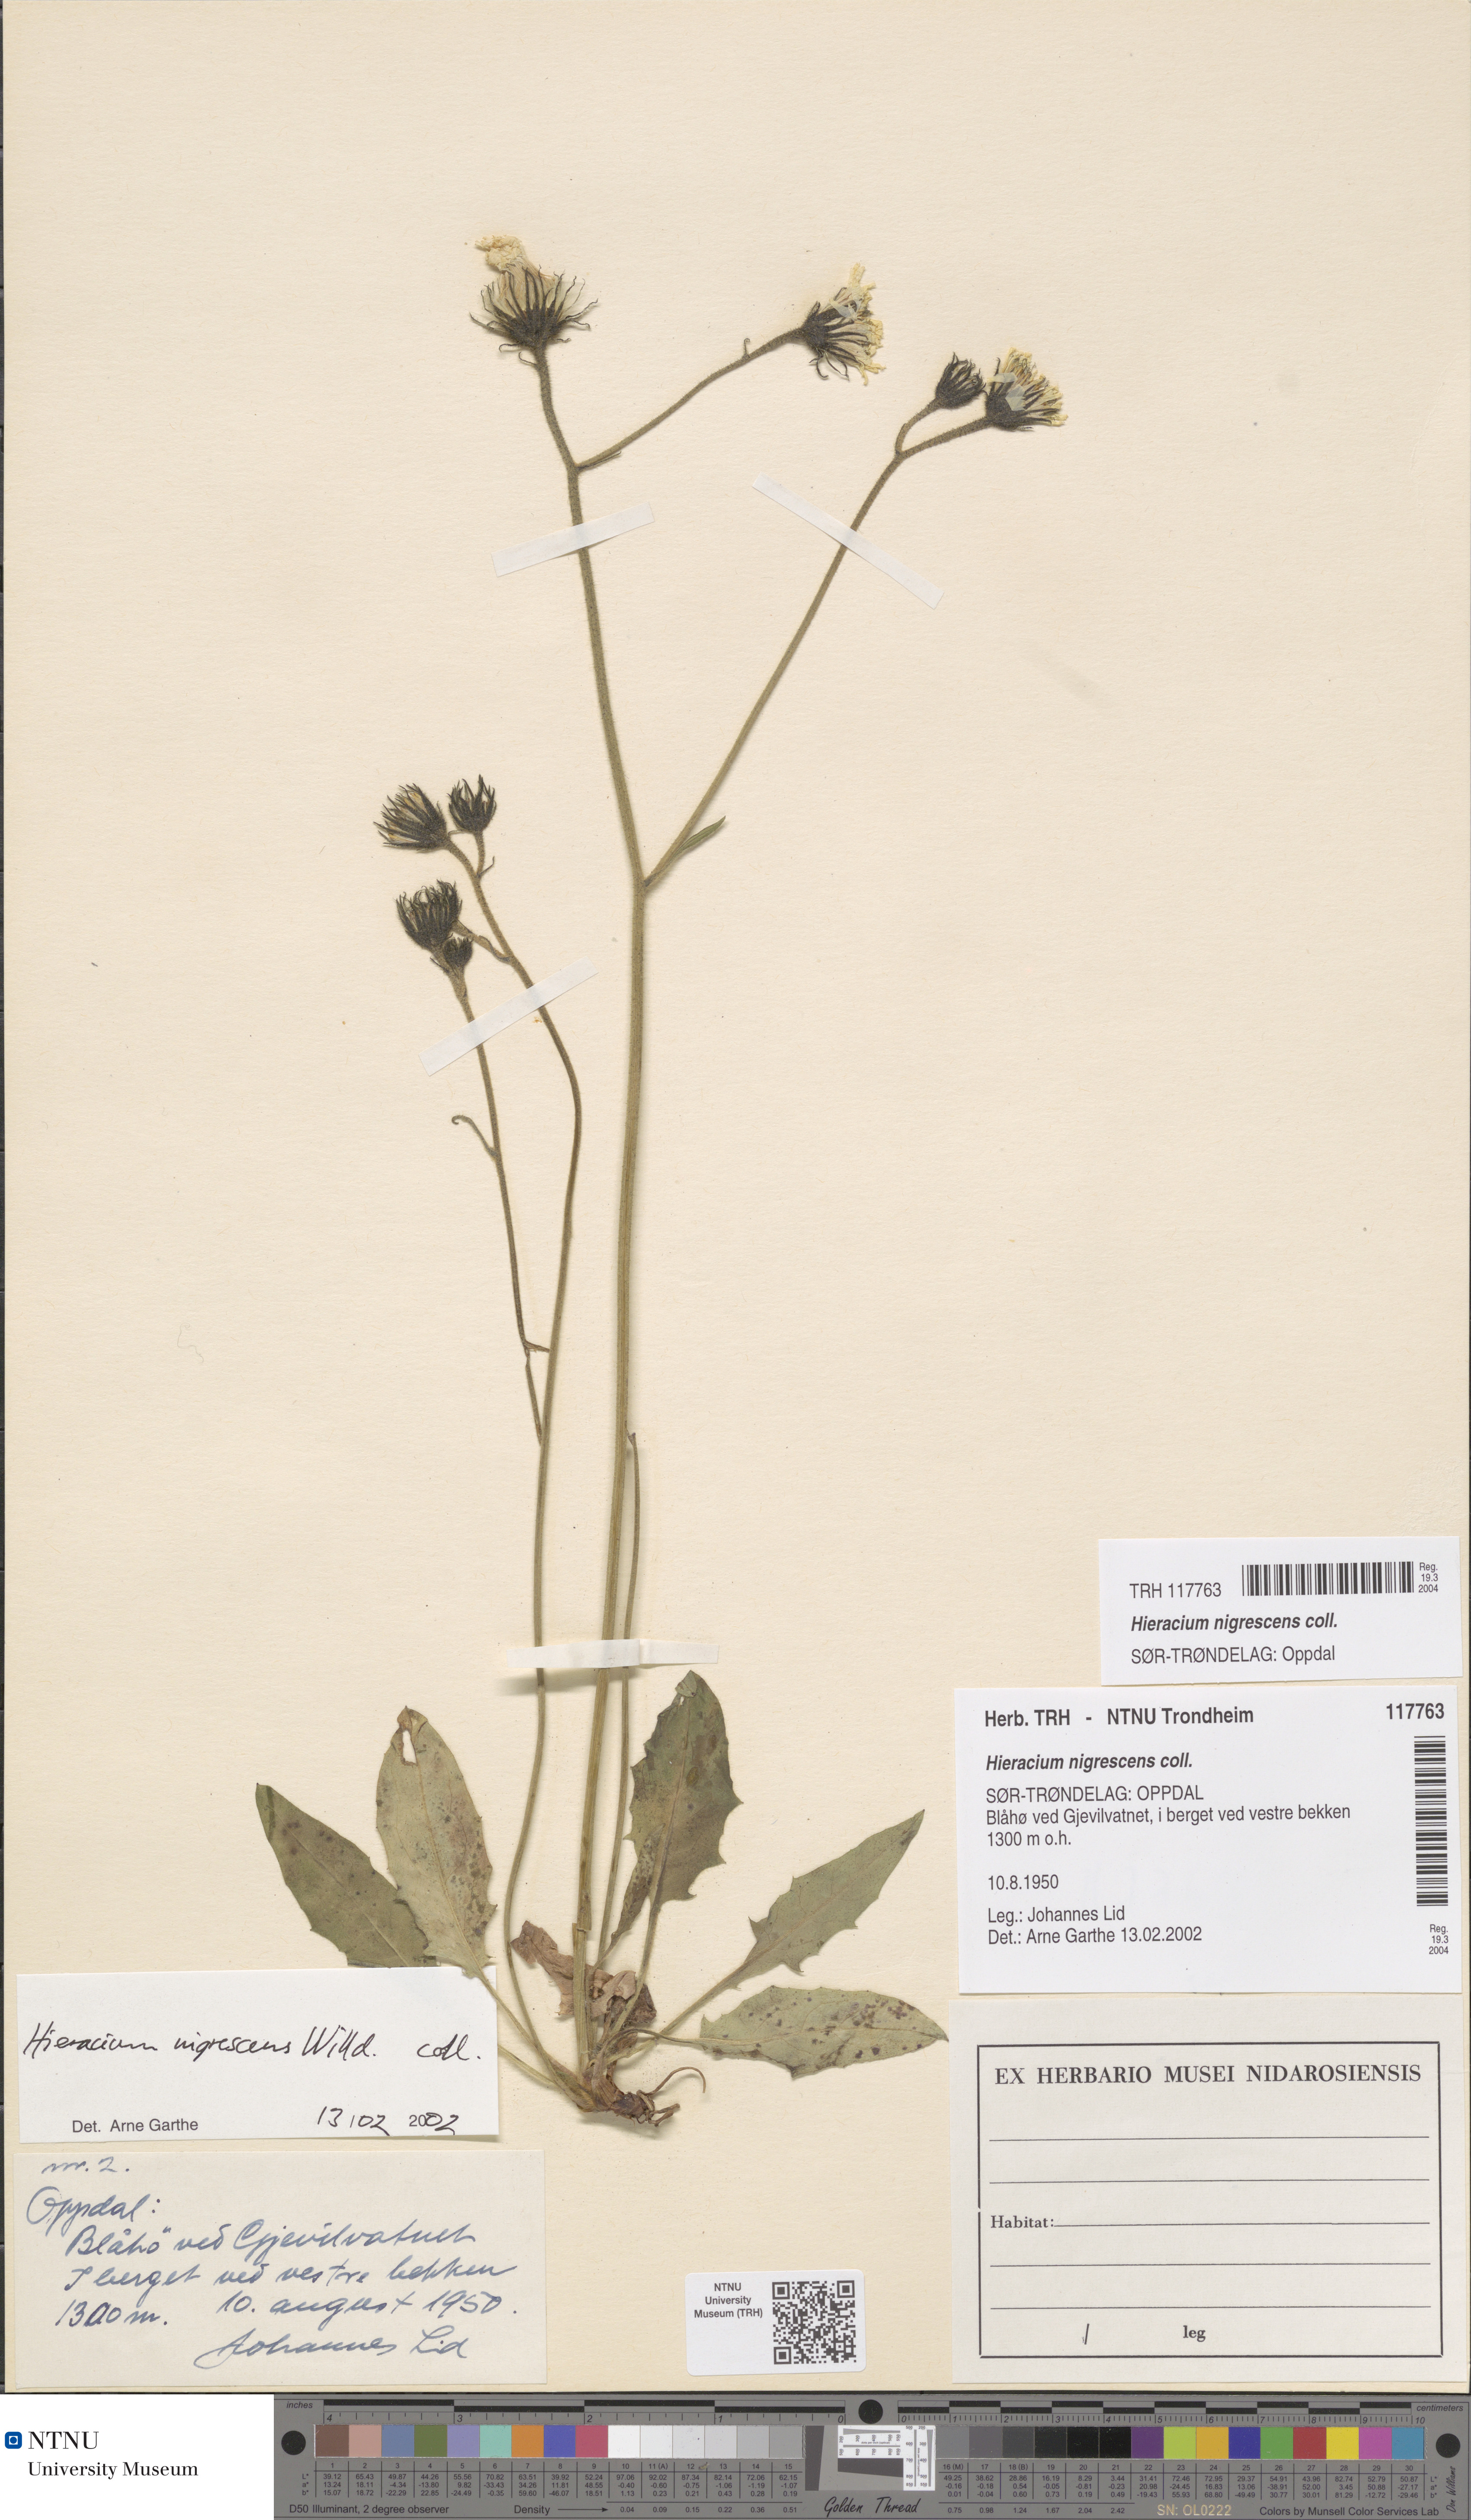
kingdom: Plantae
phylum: Tracheophyta
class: Magnoliopsida
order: Asterales
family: Asteraceae
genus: Hieracium
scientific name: Hieracium nigrescens
